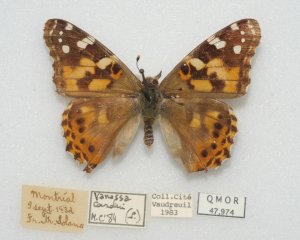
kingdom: Animalia
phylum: Arthropoda
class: Insecta
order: Lepidoptera
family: Nymphalidae
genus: Vanessa
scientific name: Vanessa cardui
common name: Painted Lady
